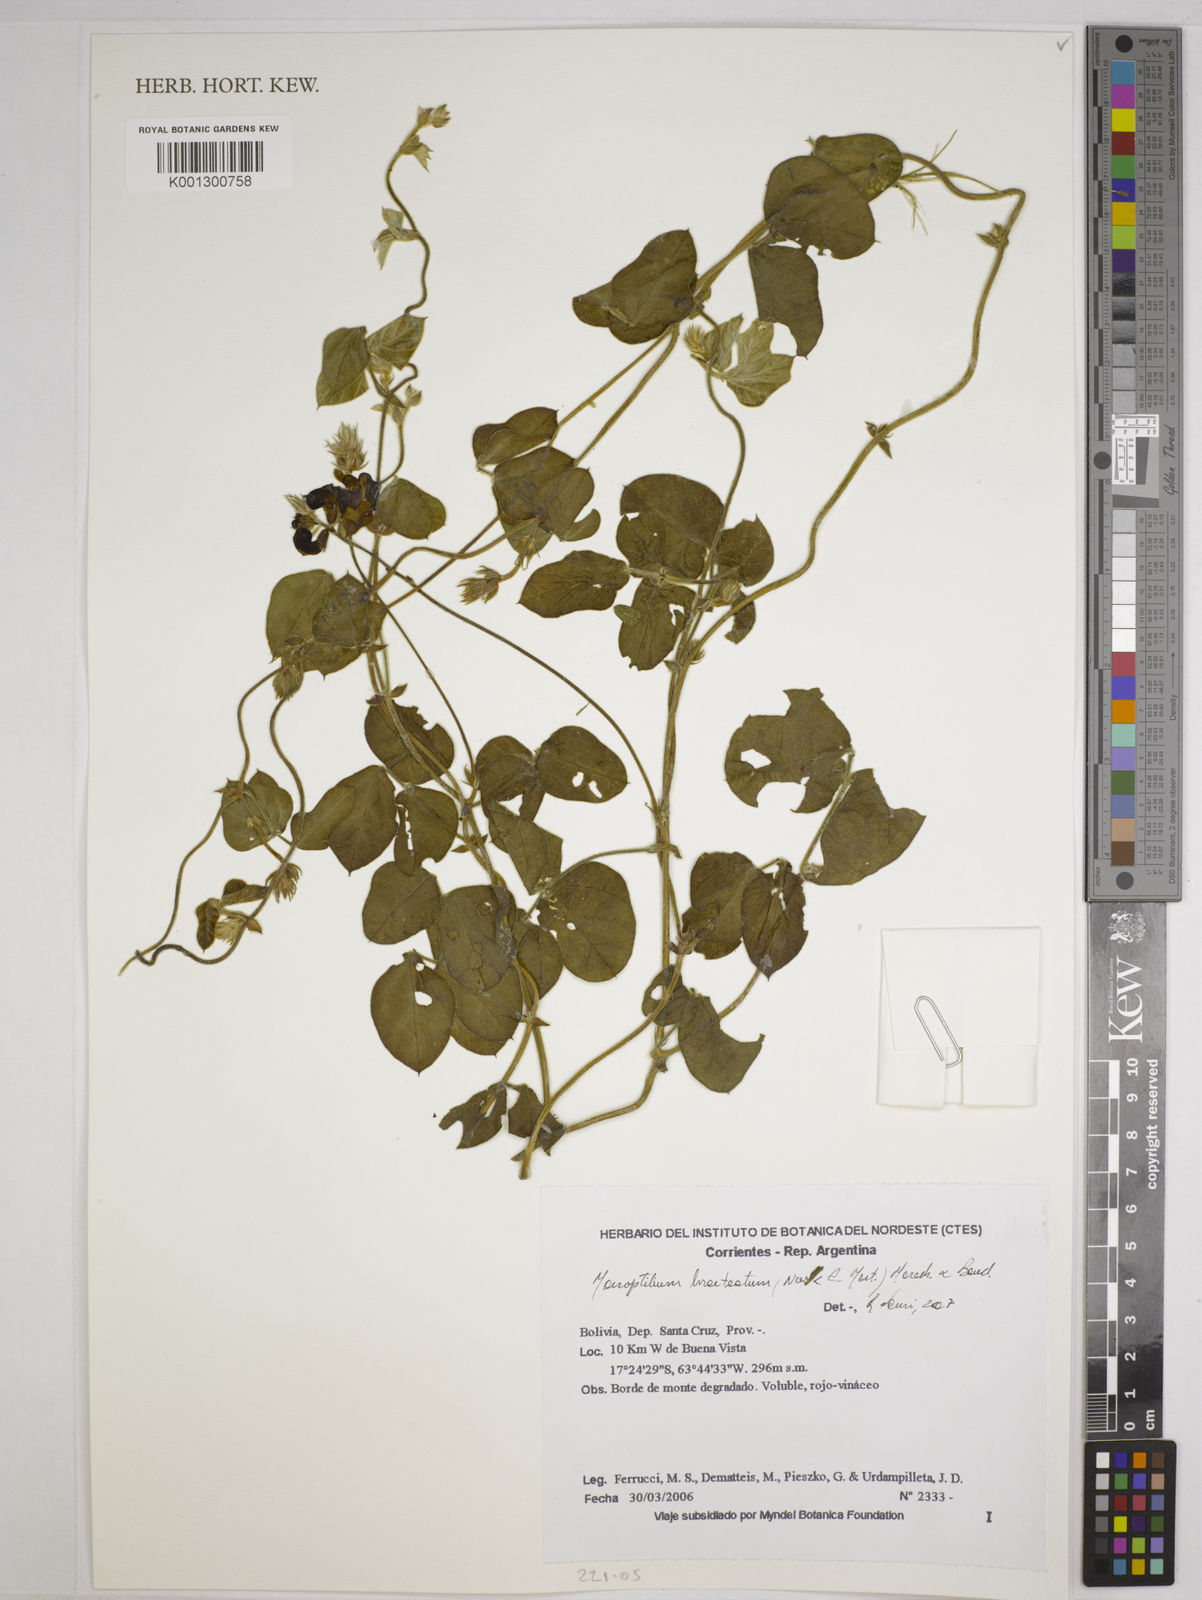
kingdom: Plantae
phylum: Tracheophyta
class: Magnoliopsida
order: Fabales
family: Fabaceae
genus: Macroptilium
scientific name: Macroptilium bracteatum
